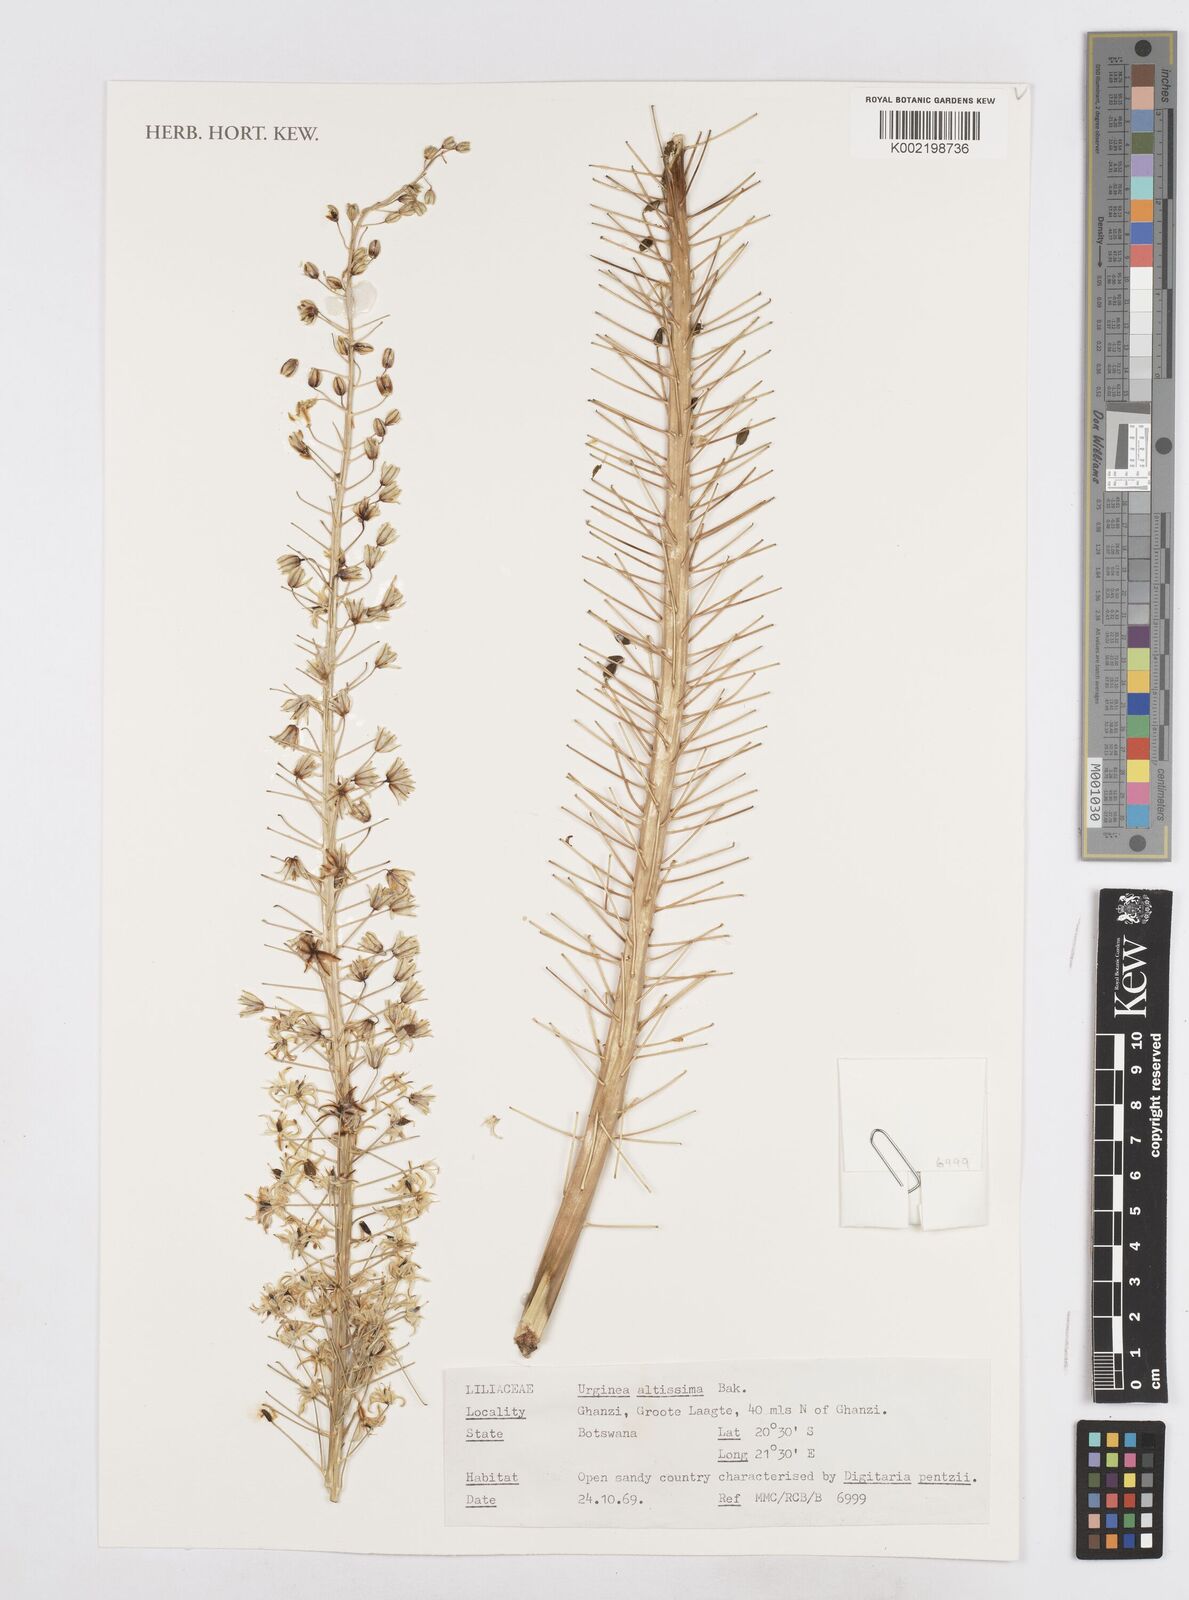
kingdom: Plantae
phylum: Tracheophyta
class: Liliopsida
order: Asparagales
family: Asparagaceae
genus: Drimia
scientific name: Drimia altissima
